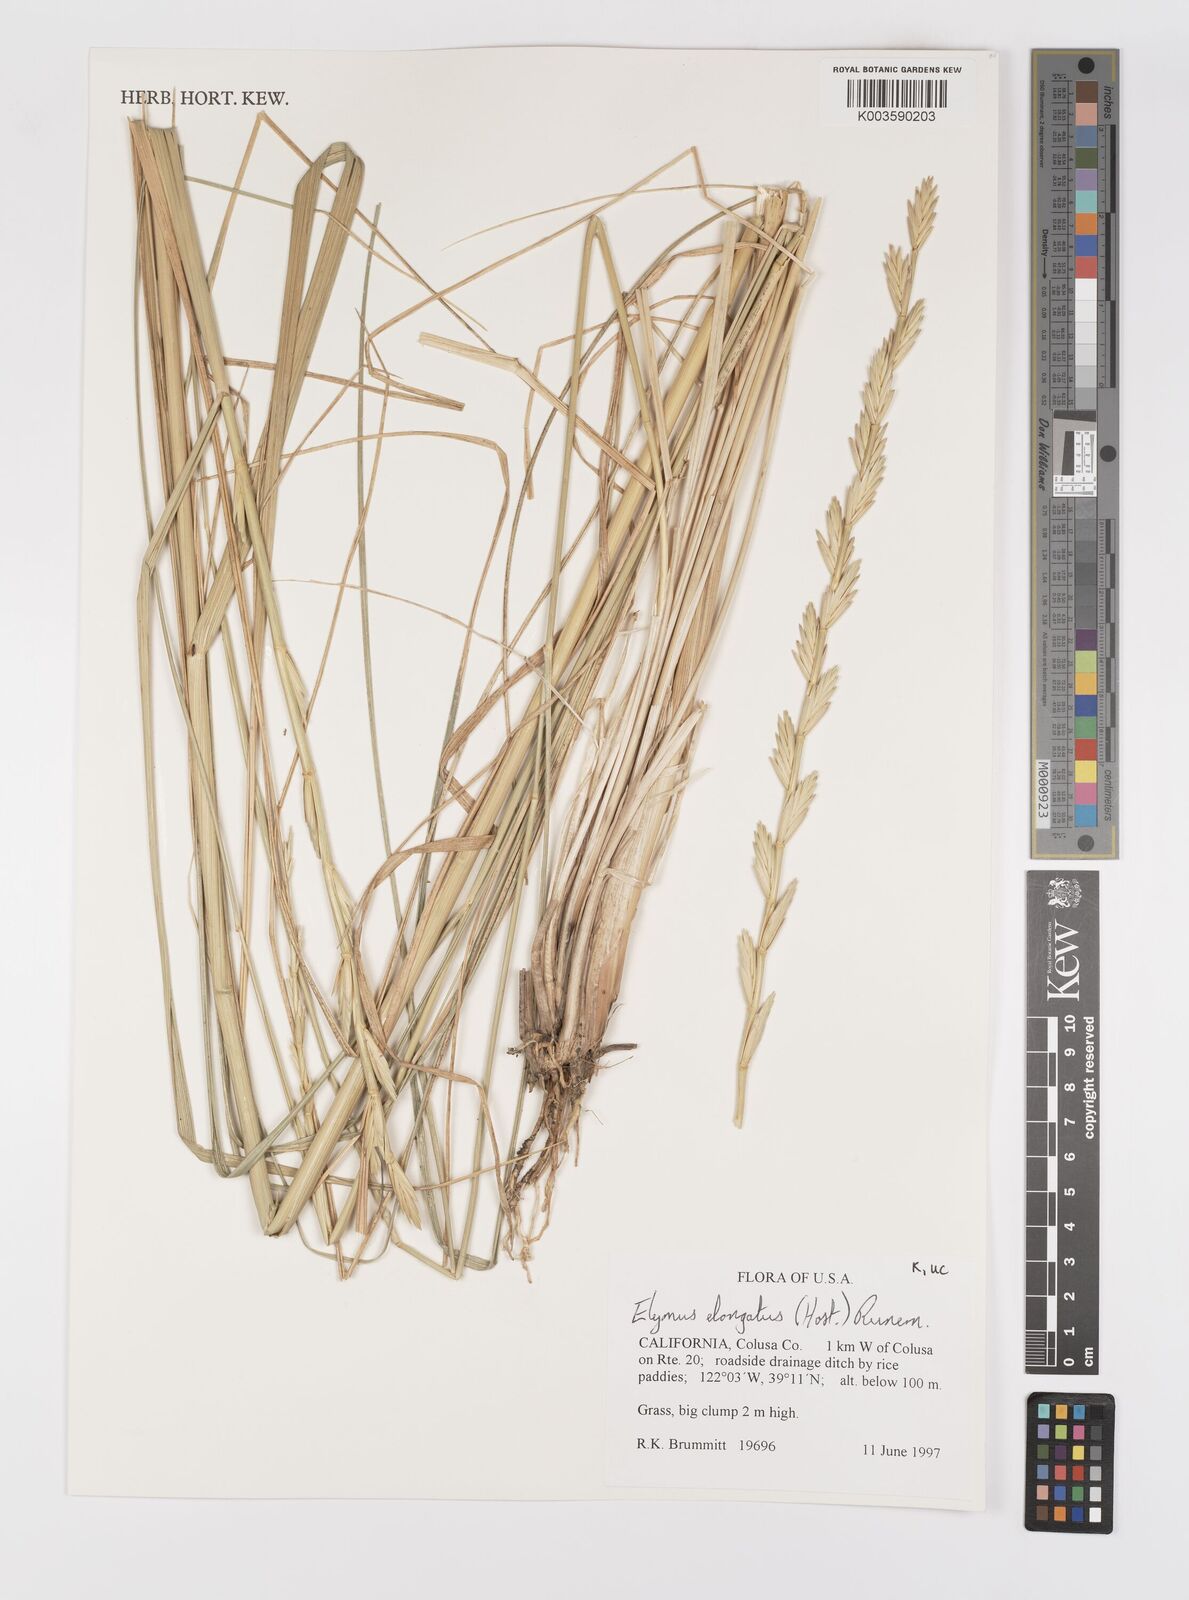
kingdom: Plantae
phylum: Tracheophyta
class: Liliopsida
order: Poales
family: Poaceae
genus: Thinopyrum
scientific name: Thinopyrum elongatum
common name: Tall wheatgrass
